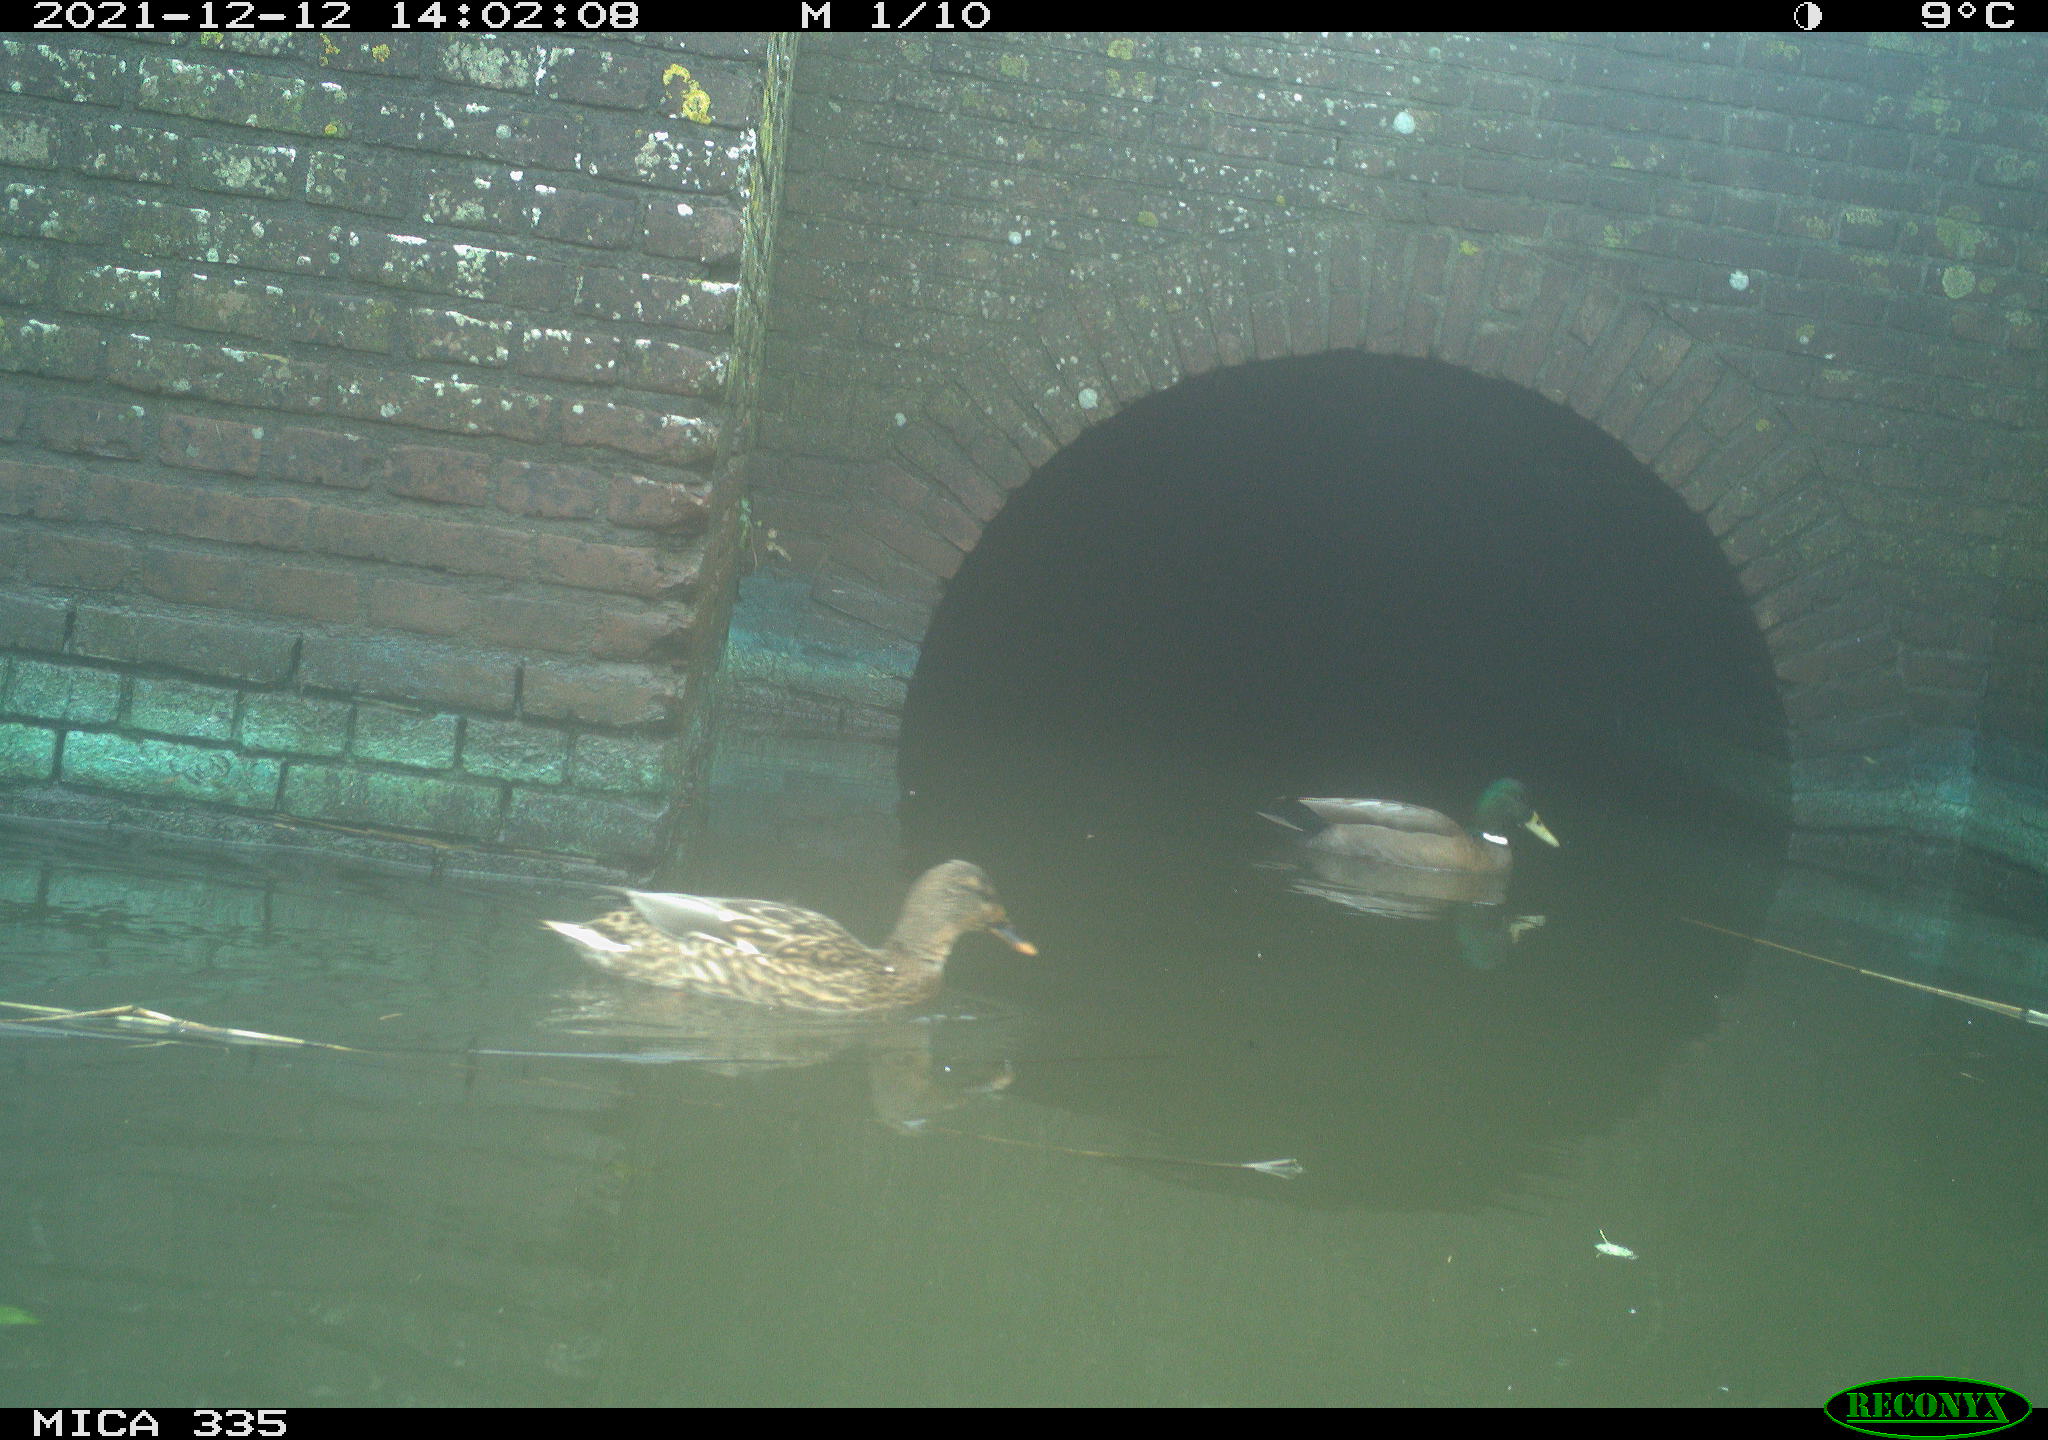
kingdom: Animalia
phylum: Chordata
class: Aves
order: Anseriformes
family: Anatidae
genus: Anas
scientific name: Anas platyrhynchos
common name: Mallard
